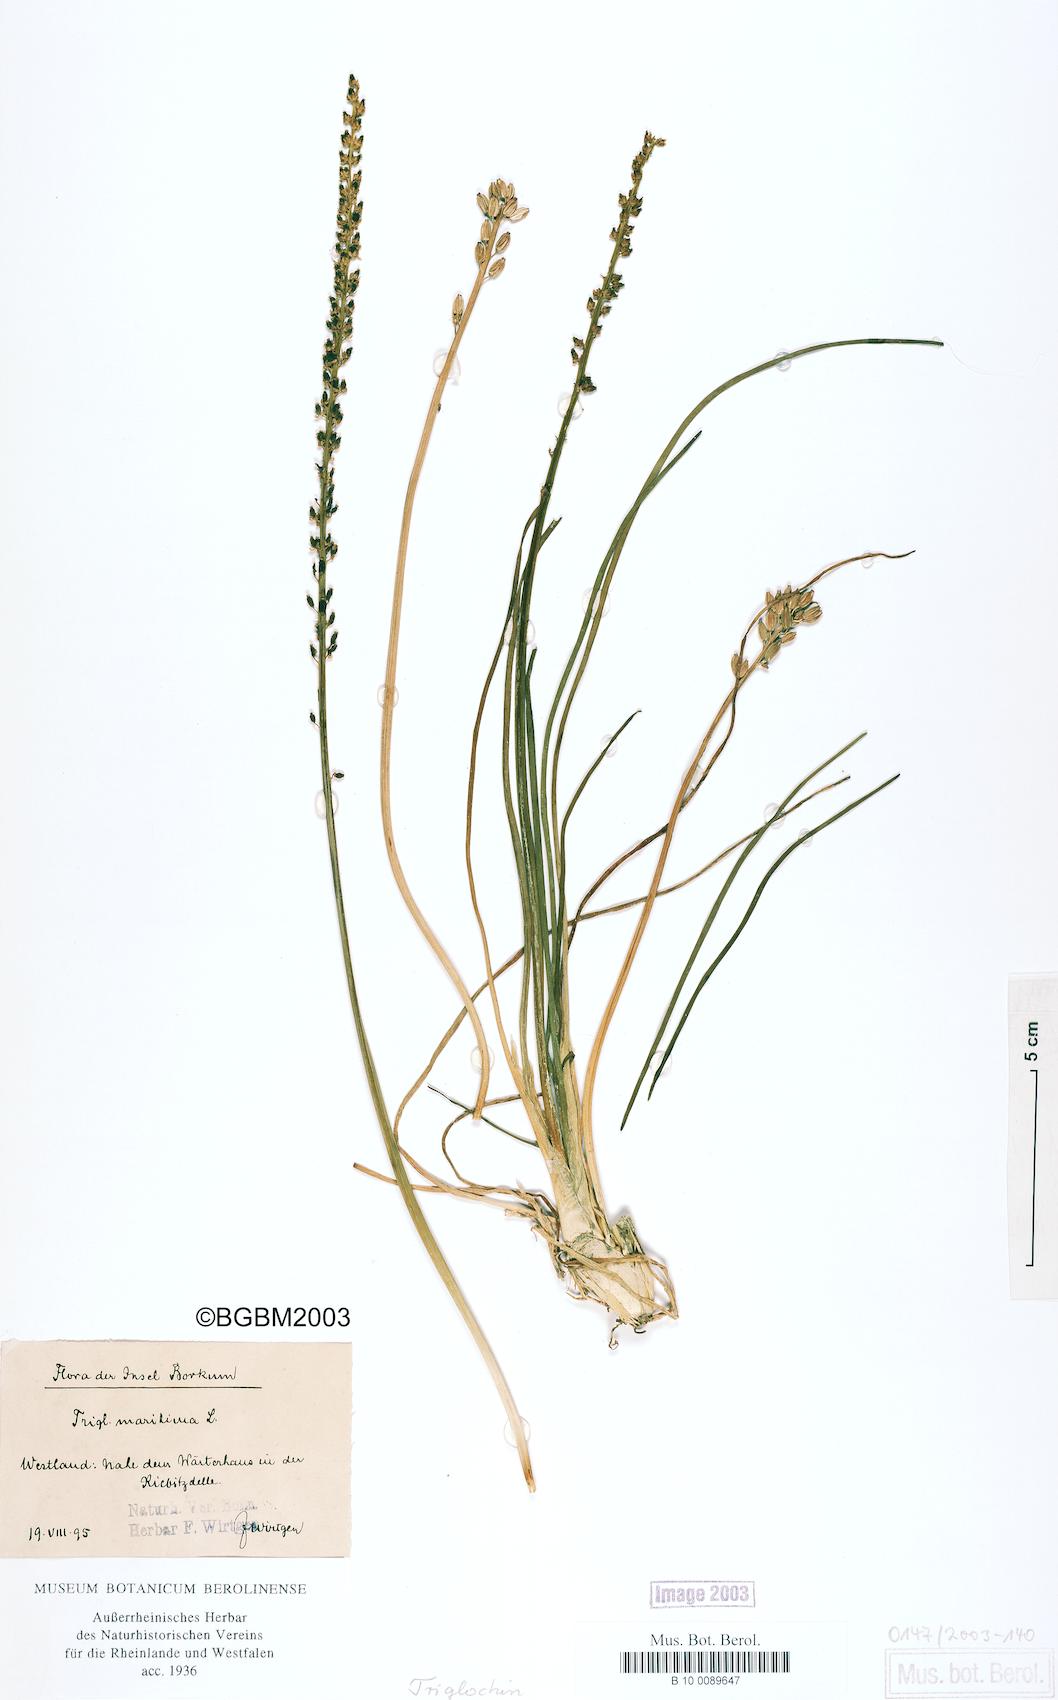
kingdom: Plantae
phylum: Tracheophyta
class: Liliopsida
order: Alismatales
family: Juncaginaceae
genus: Triglochin
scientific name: Triglochin maritima
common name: Sea arrowgrass
